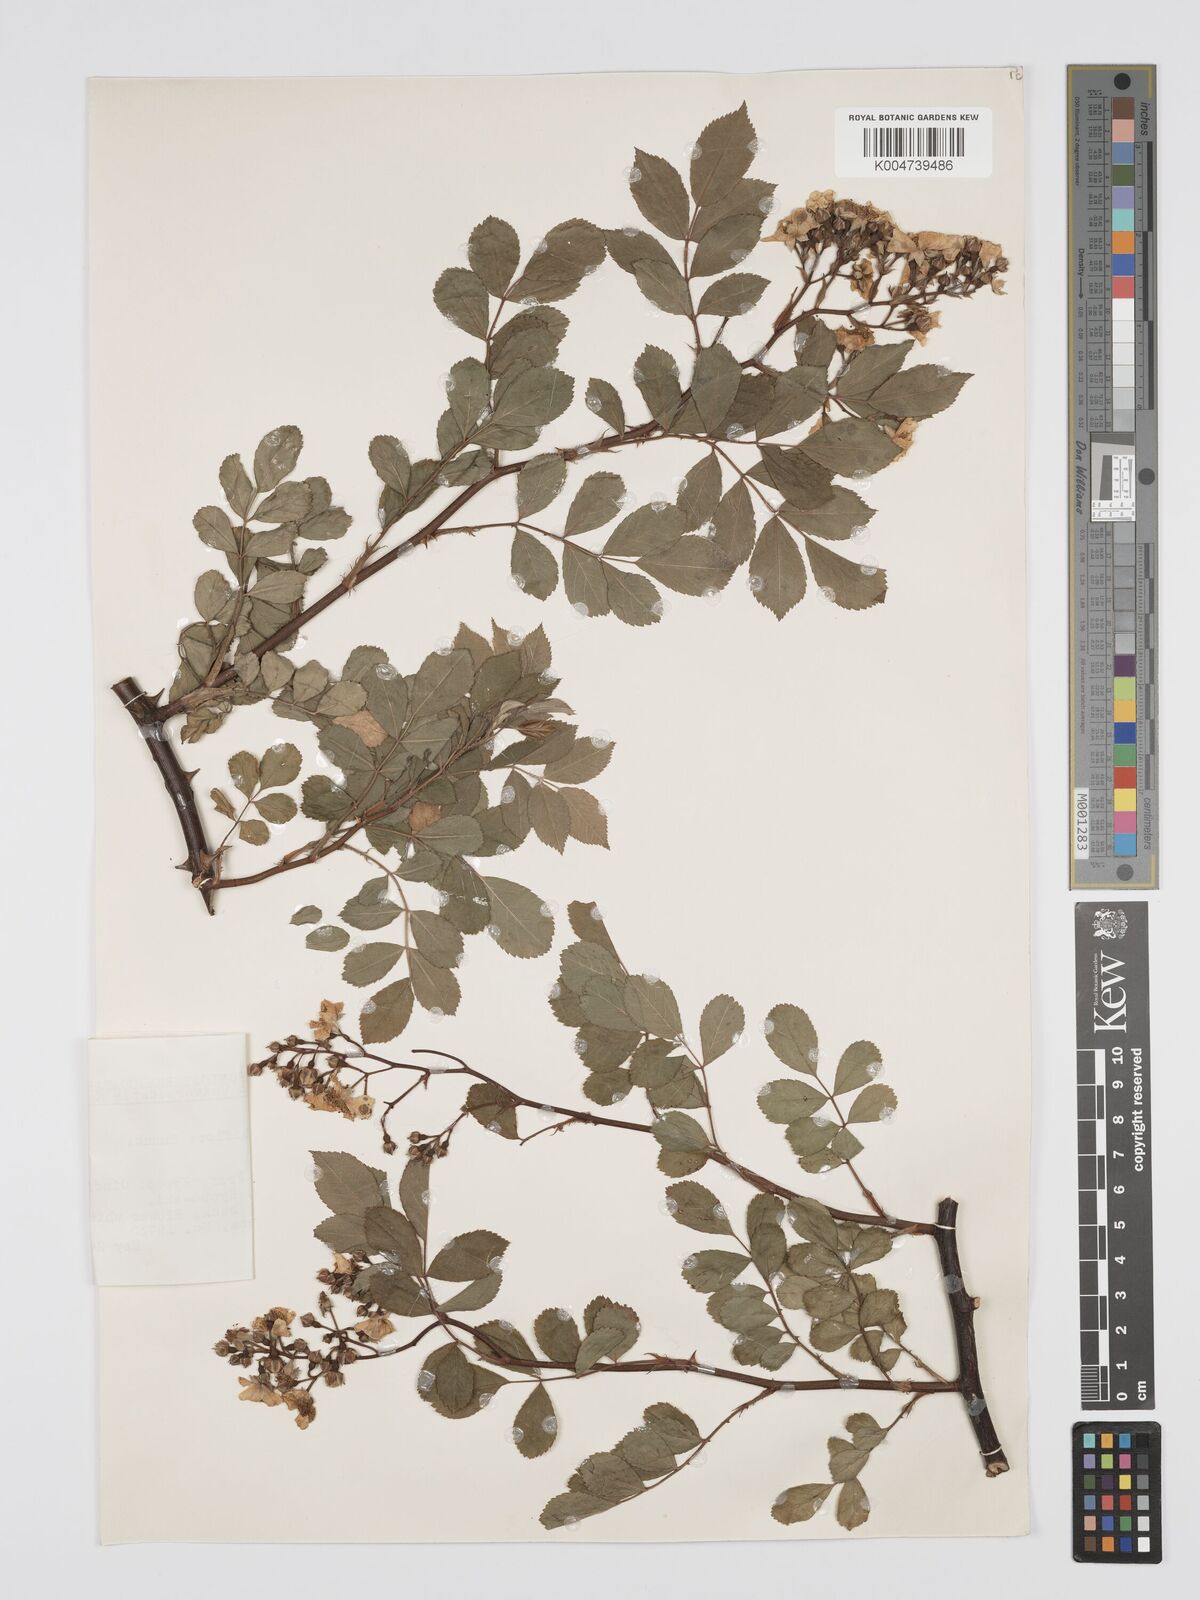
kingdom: Plantae
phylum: Tracheophyta
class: Magnoliopsida
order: Rosales
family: Rosaceae
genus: Rosa
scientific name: Rosa
